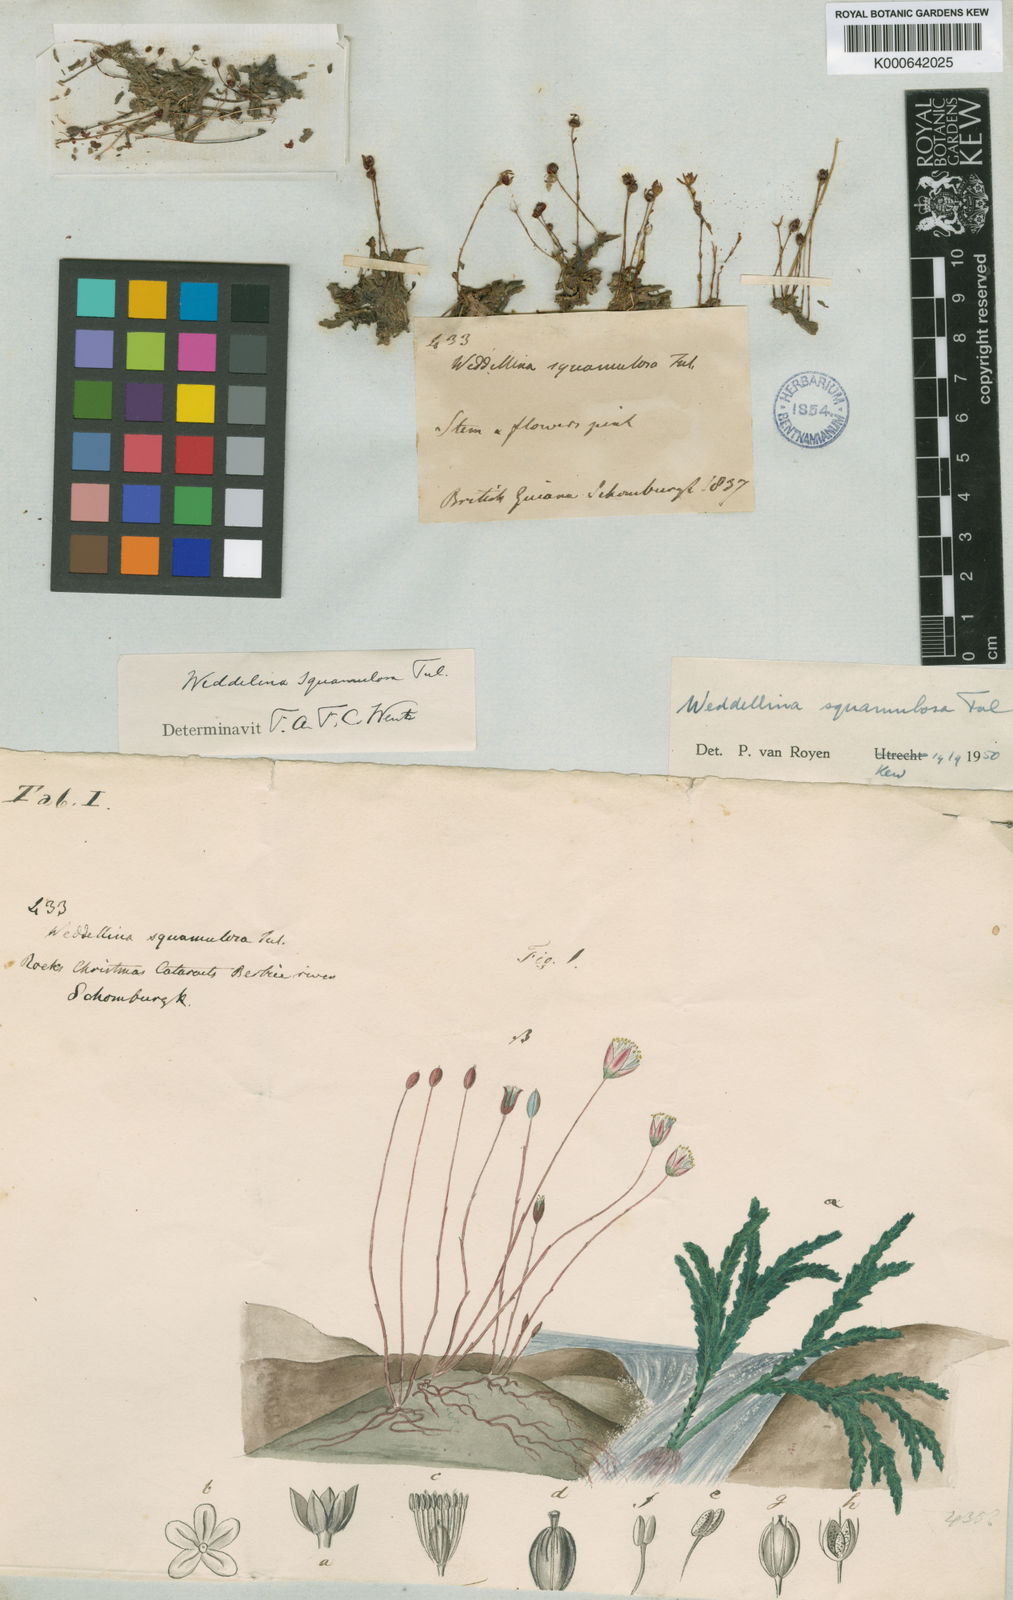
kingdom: Plantae
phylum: Tracheophyta
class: Magnoliopsida
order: Malpighiales
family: Podostemaceae
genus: Weddellina
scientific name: Weddellina squamulosa
